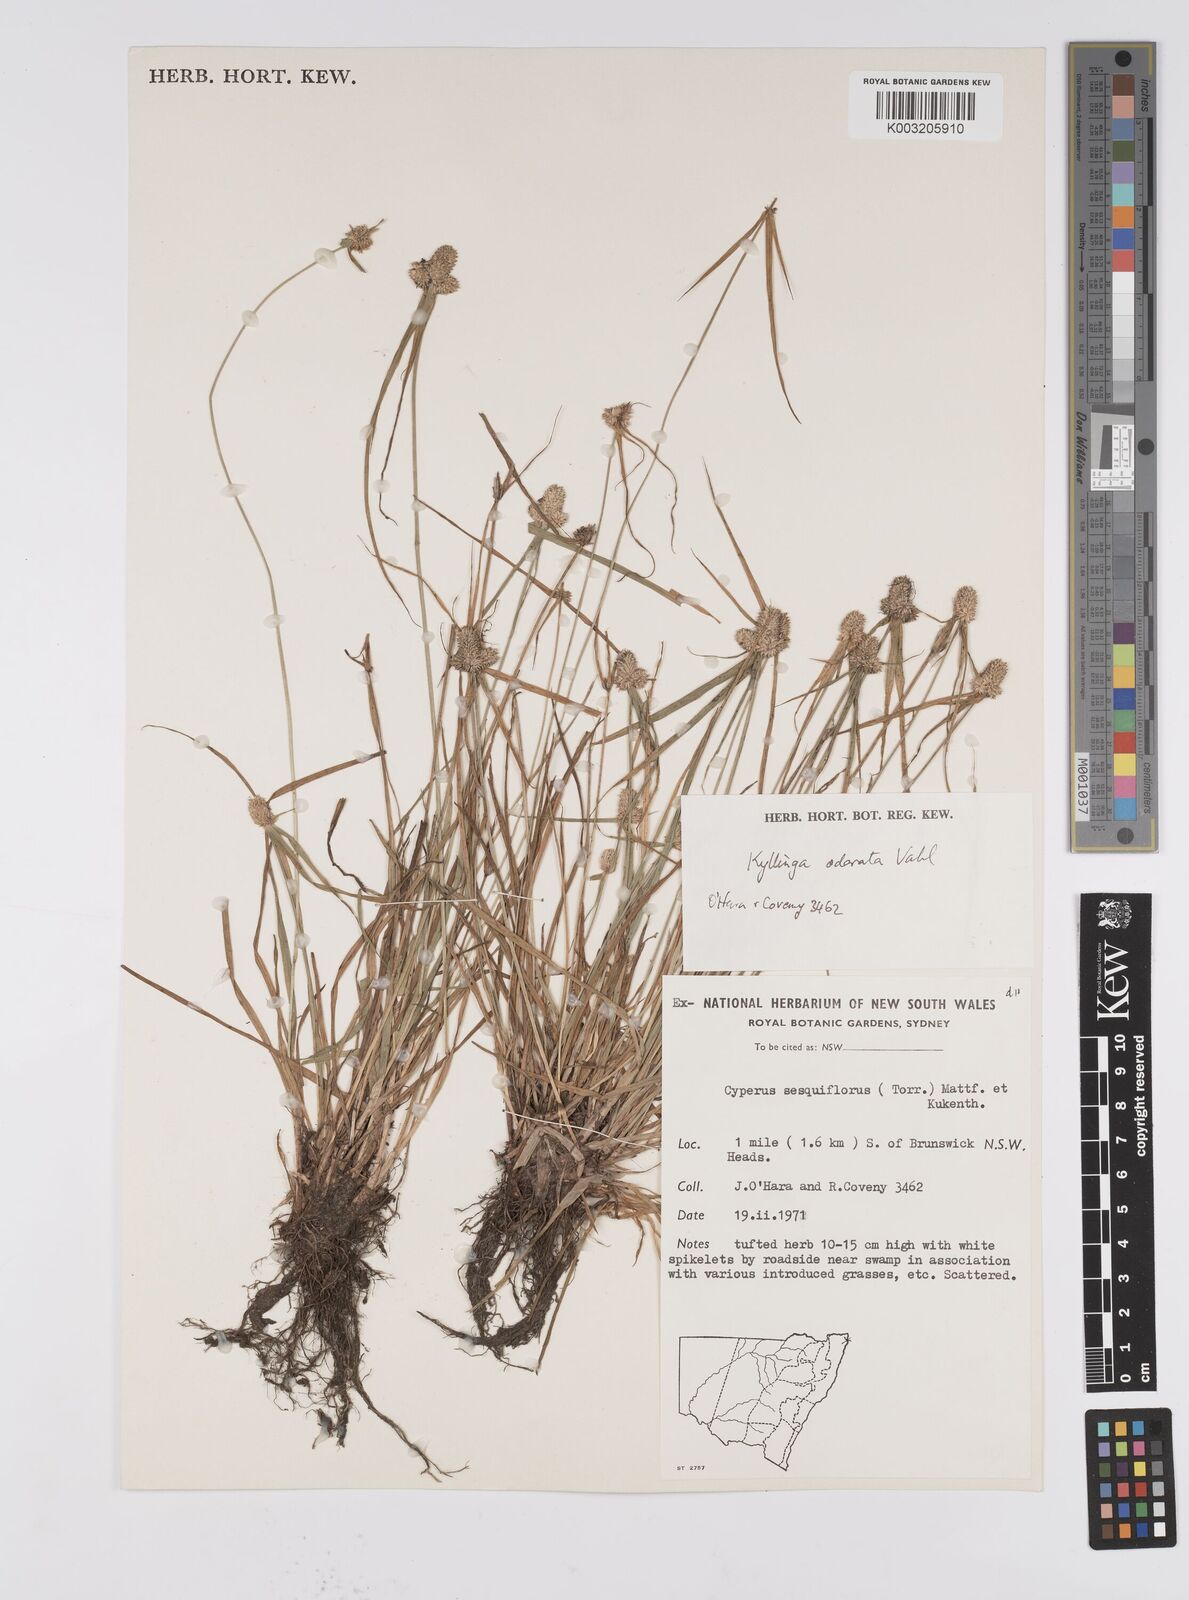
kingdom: Plantae
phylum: Tracheophyta
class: Liliopsida
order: Poales
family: Cyperaceae
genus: Cyperus
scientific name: Cyperus
